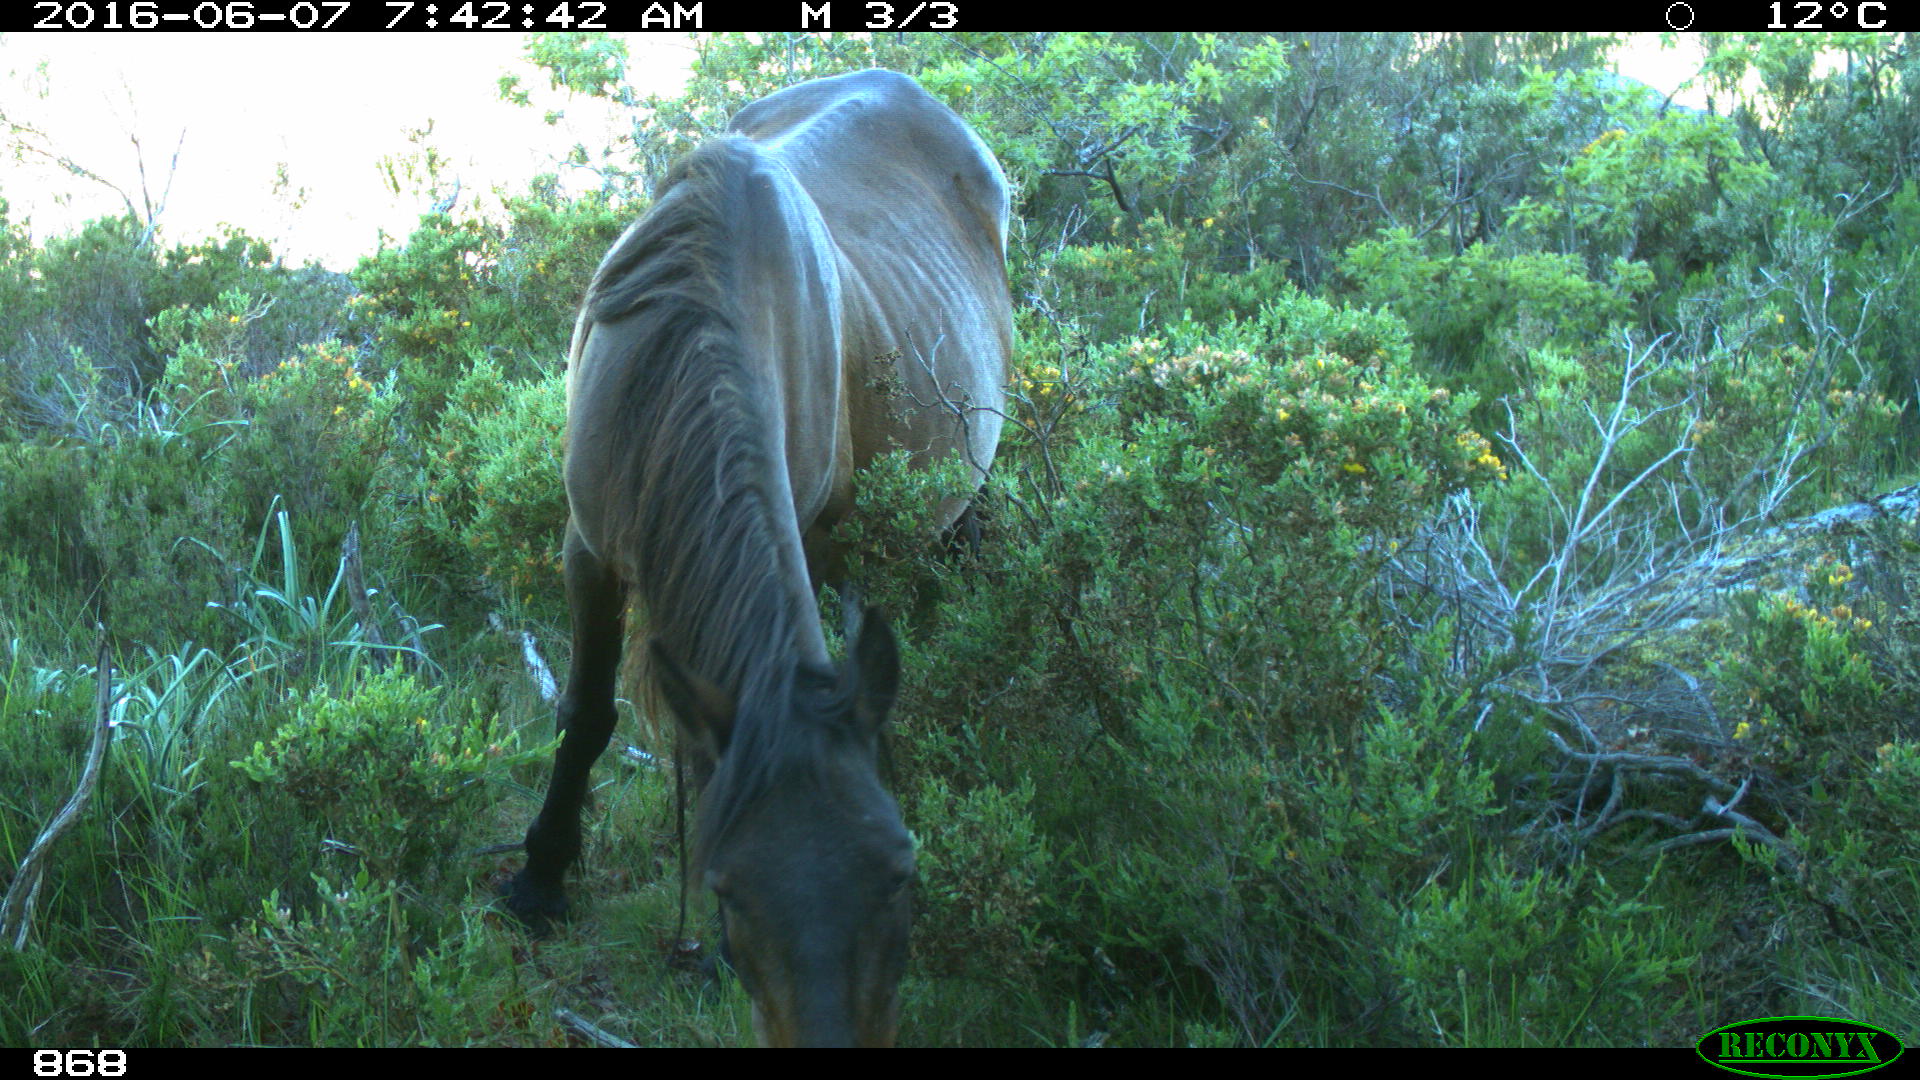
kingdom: Animalia
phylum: Chordata
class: Mammalia
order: Perissodactyla
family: Equidae
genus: Equus
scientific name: Equus caballus
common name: Horse
